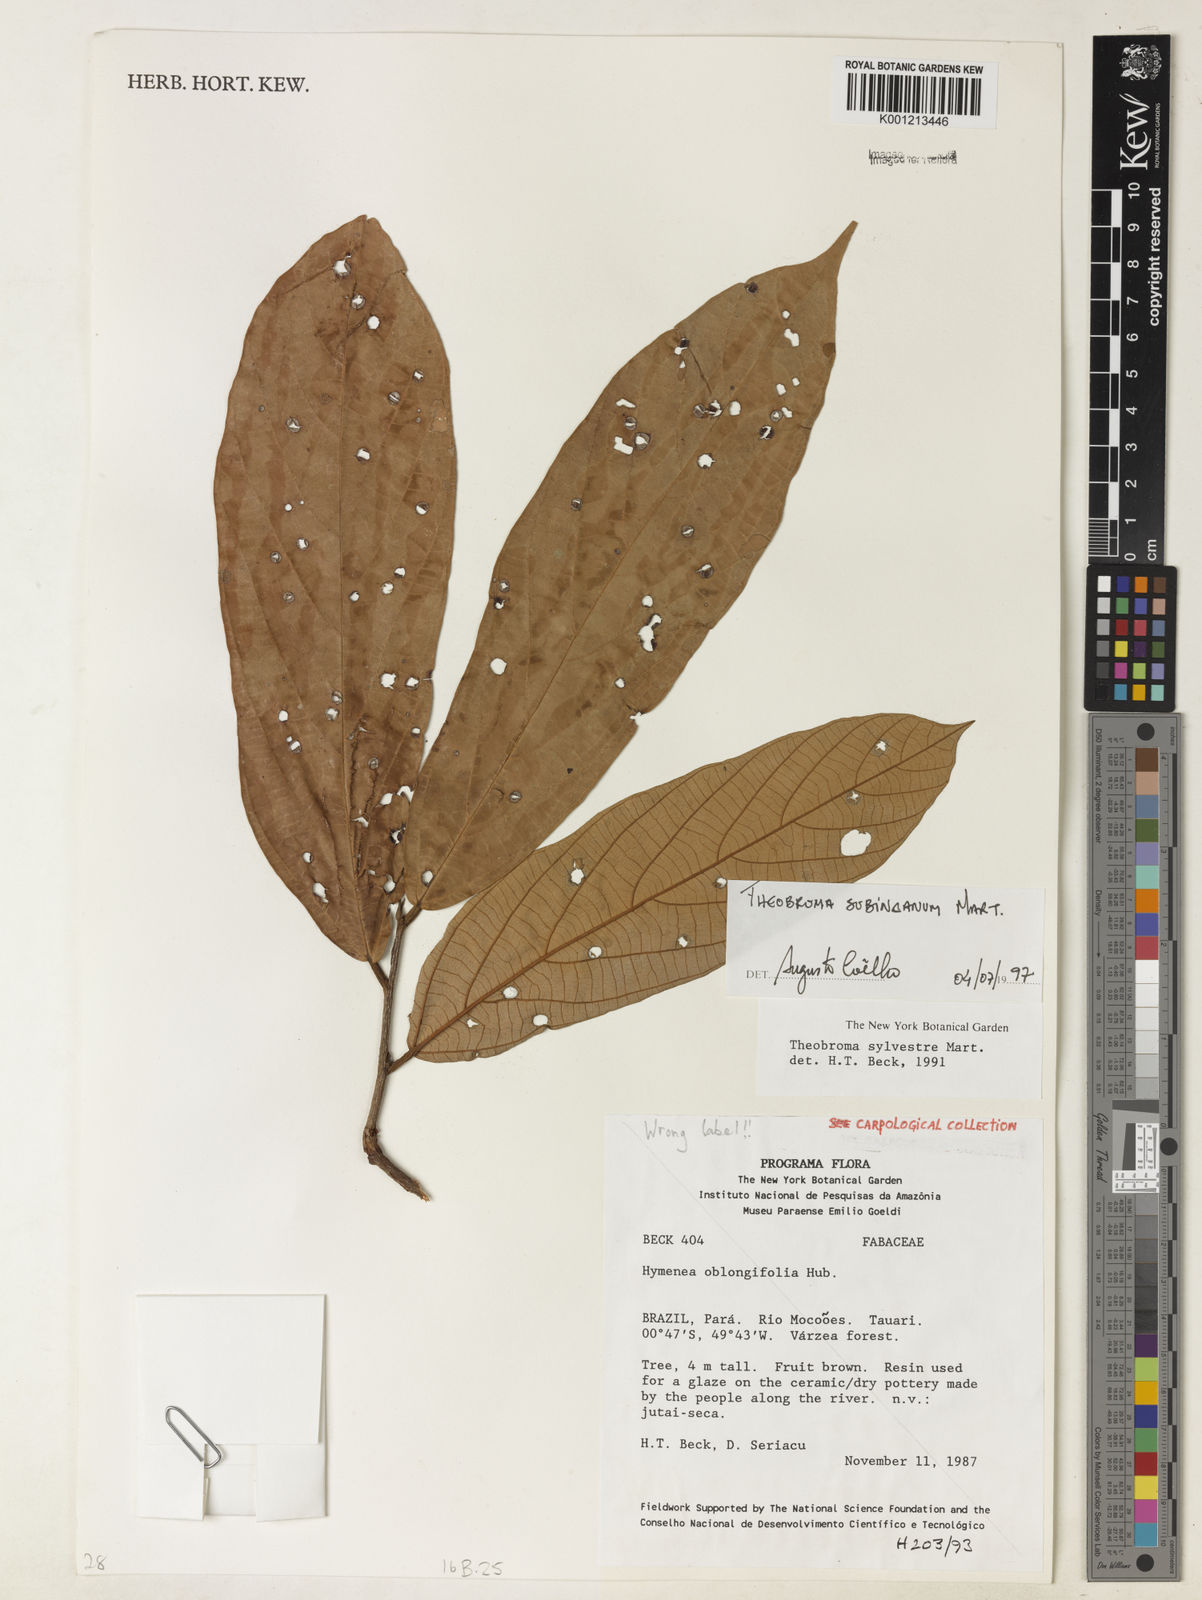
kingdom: Plantae
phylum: Tracheophyta
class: Magnoliopsida
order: Malvales
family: Malvaceae
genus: Theobroma
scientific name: Theobroma subincanum
